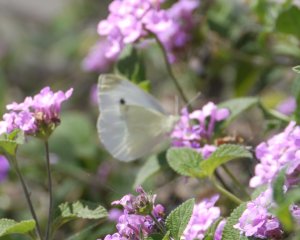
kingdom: Animalia
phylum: Arthropoda
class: Insecta
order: Lepidoptera
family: Pieridae
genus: Pieris
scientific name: Pieris rapae
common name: Cabbage White
